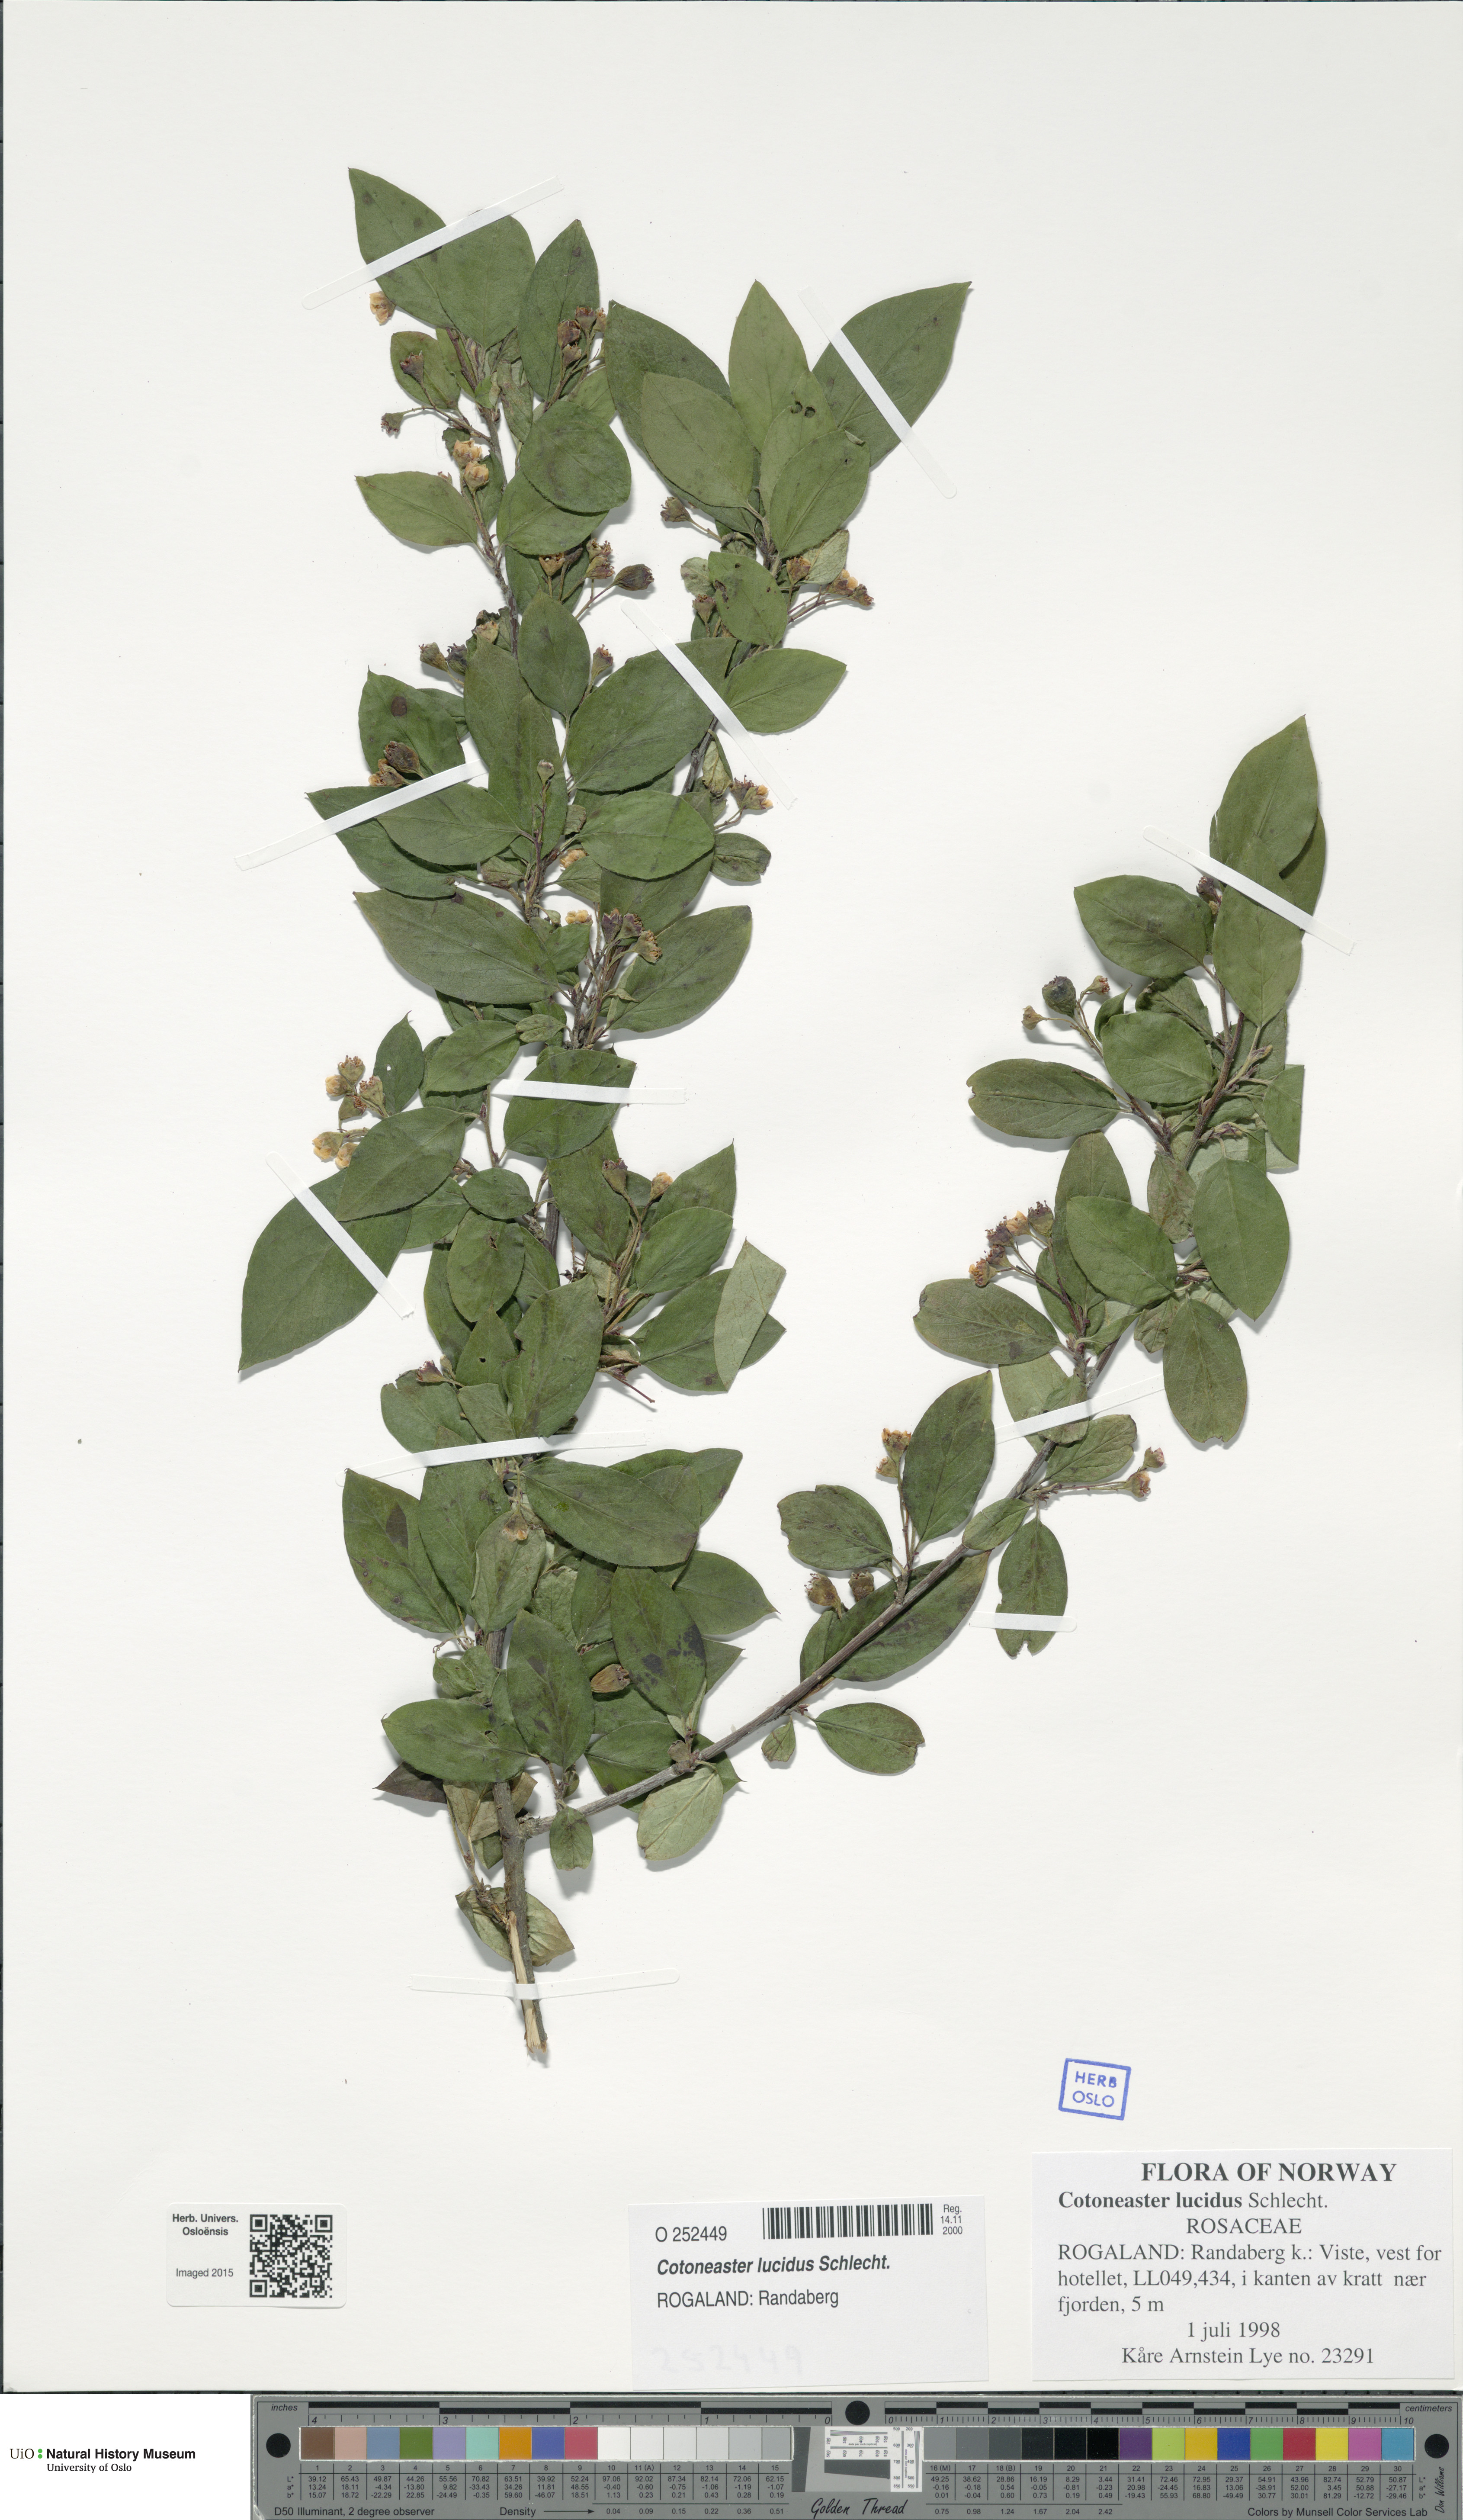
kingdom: Plantae
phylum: Tracheophyta
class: Magnoliopsida
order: Rosales
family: Rosaceae
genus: Cotoneaster
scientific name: Cotoneaster acutifolius
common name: Peking cotoneaster
